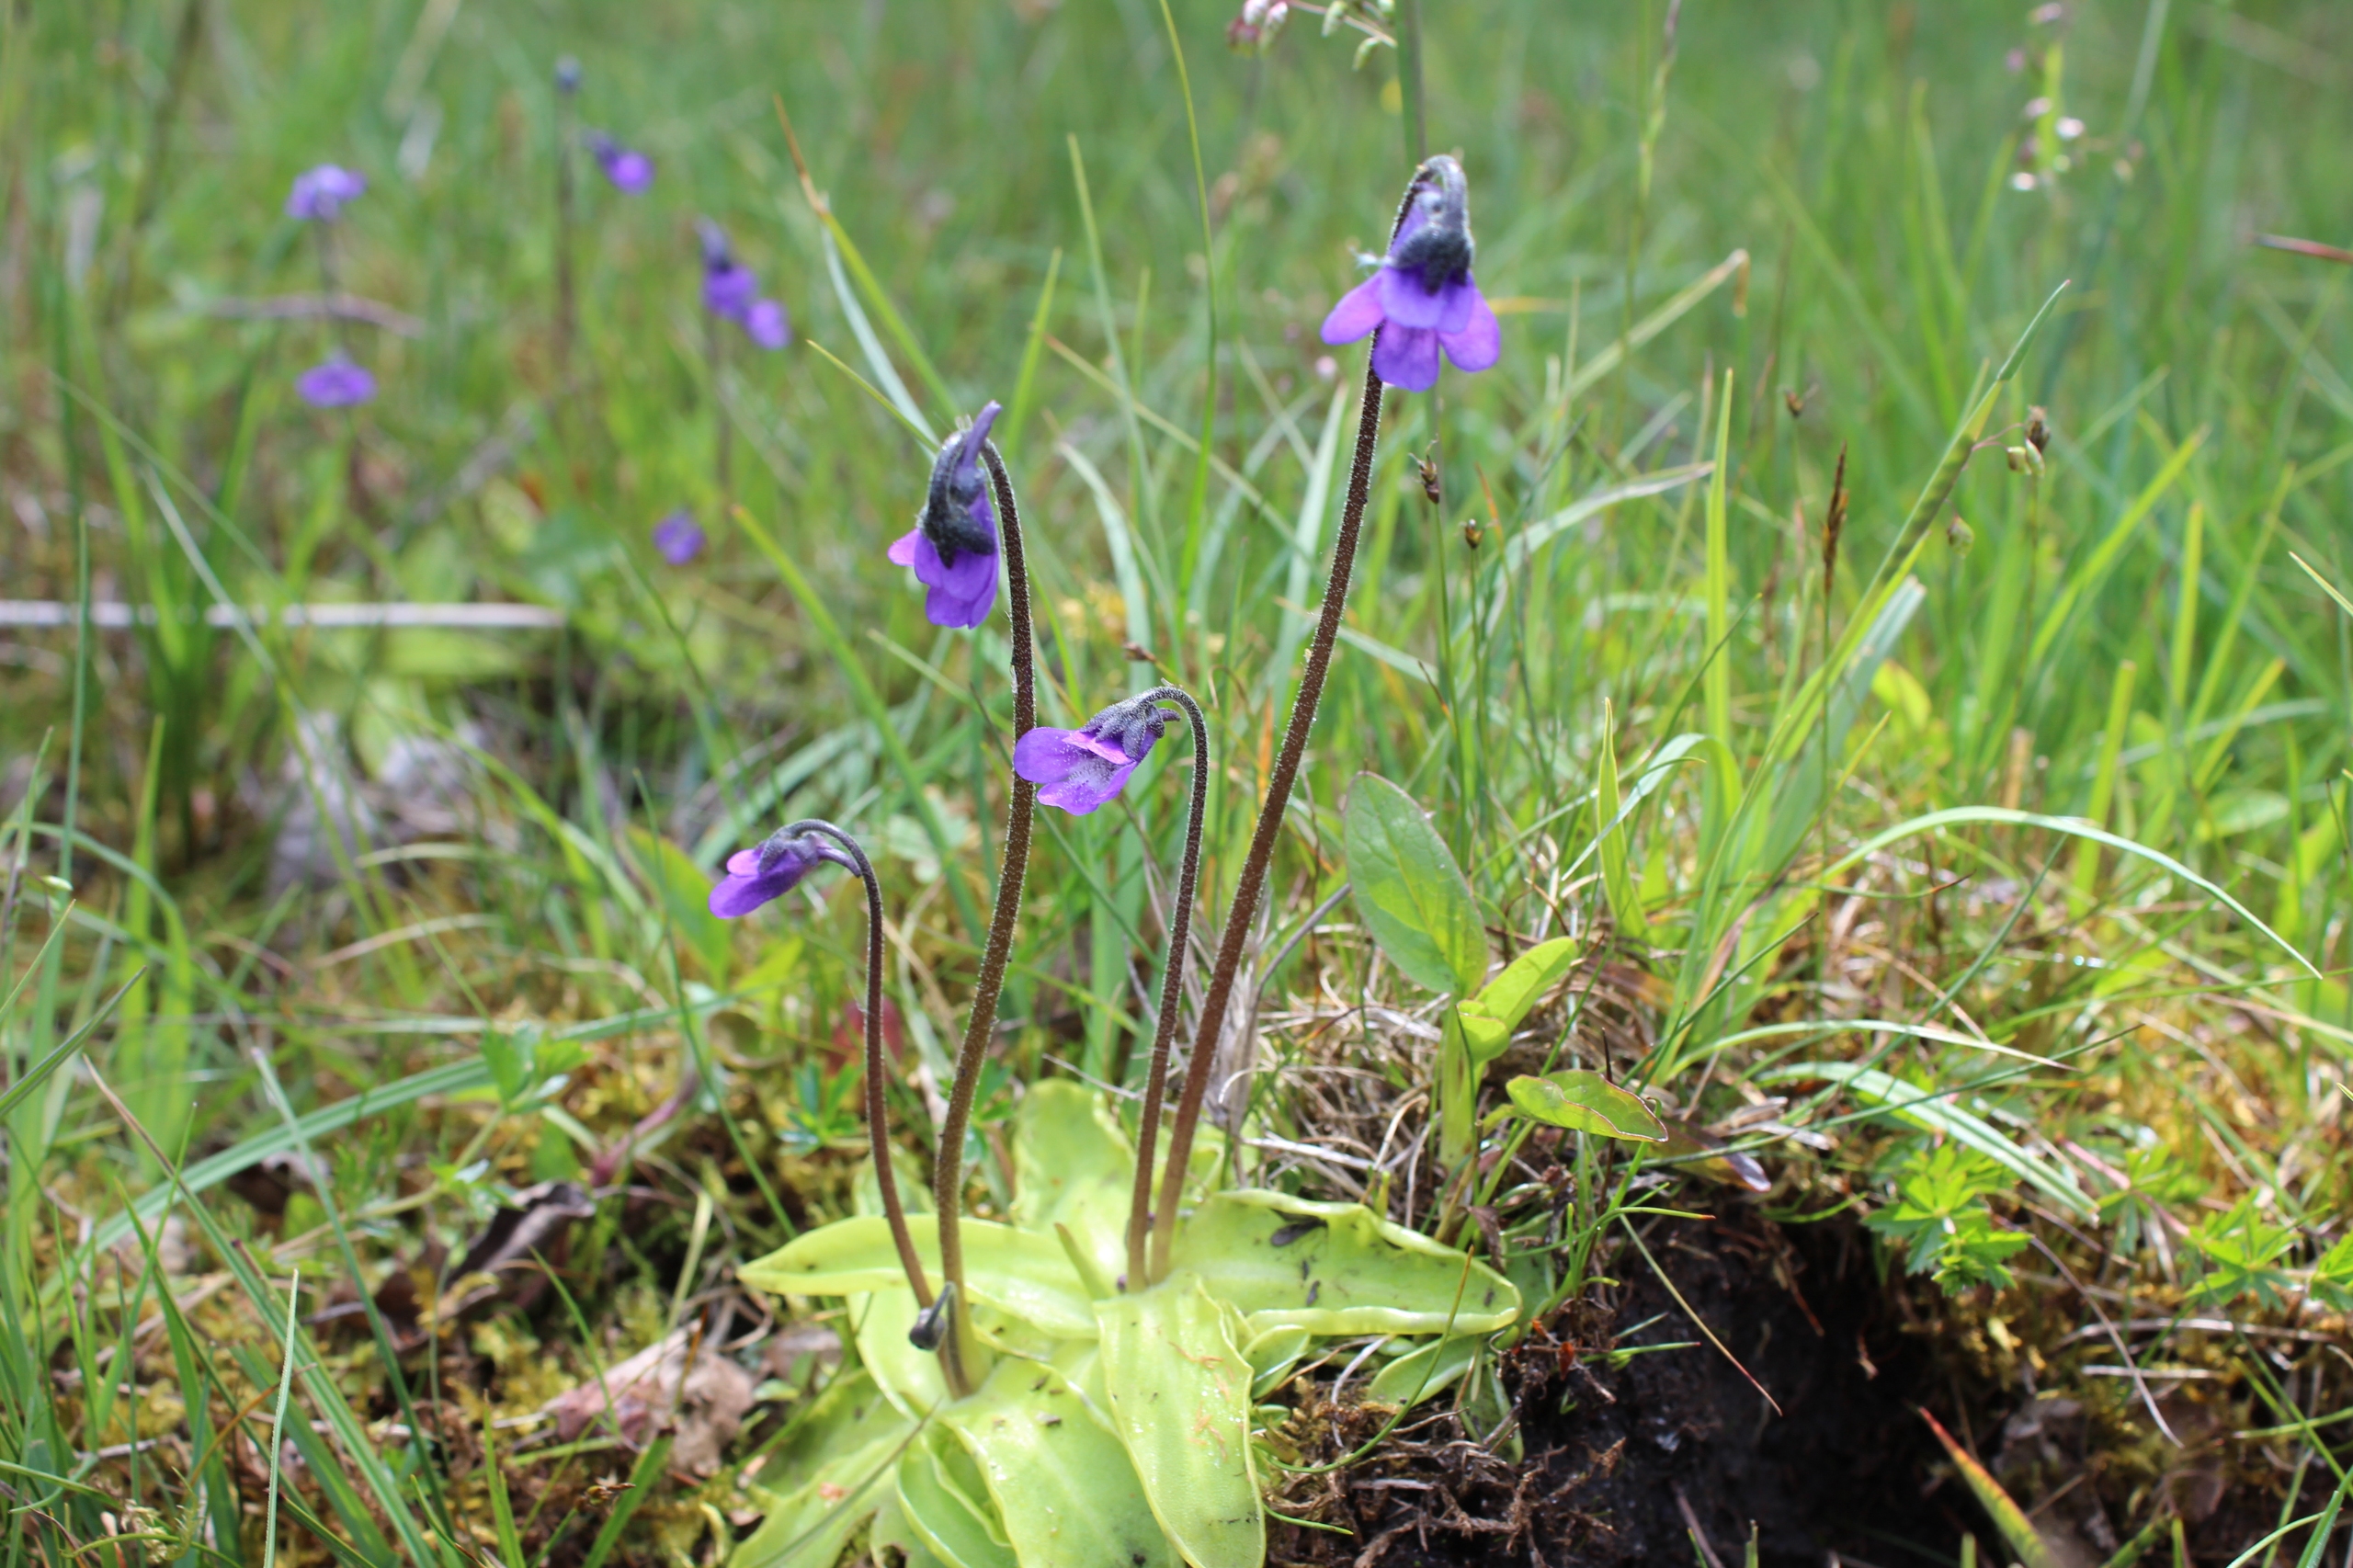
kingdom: Plantae
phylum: Tracheophyta
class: Magnoliopsida
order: Lamiales
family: Lentibulariaceae
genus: Pinguicula
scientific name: Pinguicula vulgaris
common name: Vibefedt
